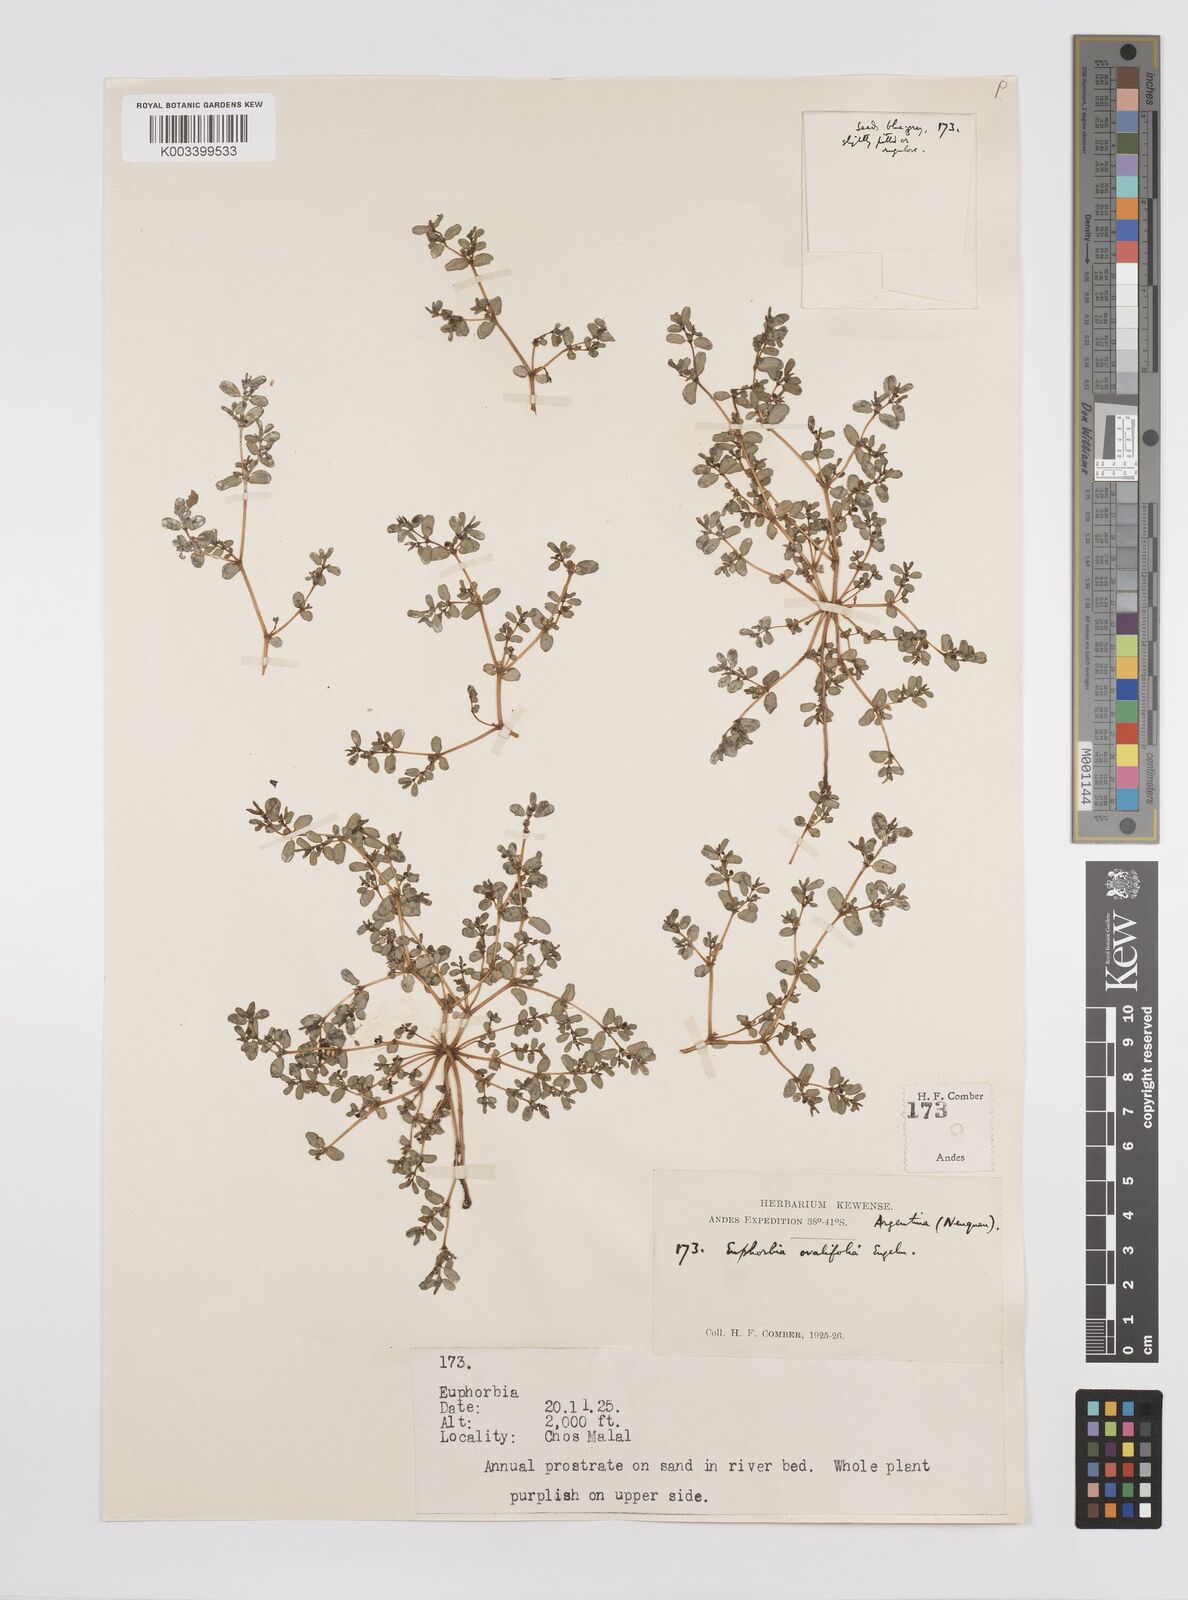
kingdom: Plantae
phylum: Tracheophyta
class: Magnoliopsida
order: Malpighiales
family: Euphorbiaceae
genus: Euphorbia
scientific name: Euphorbia
